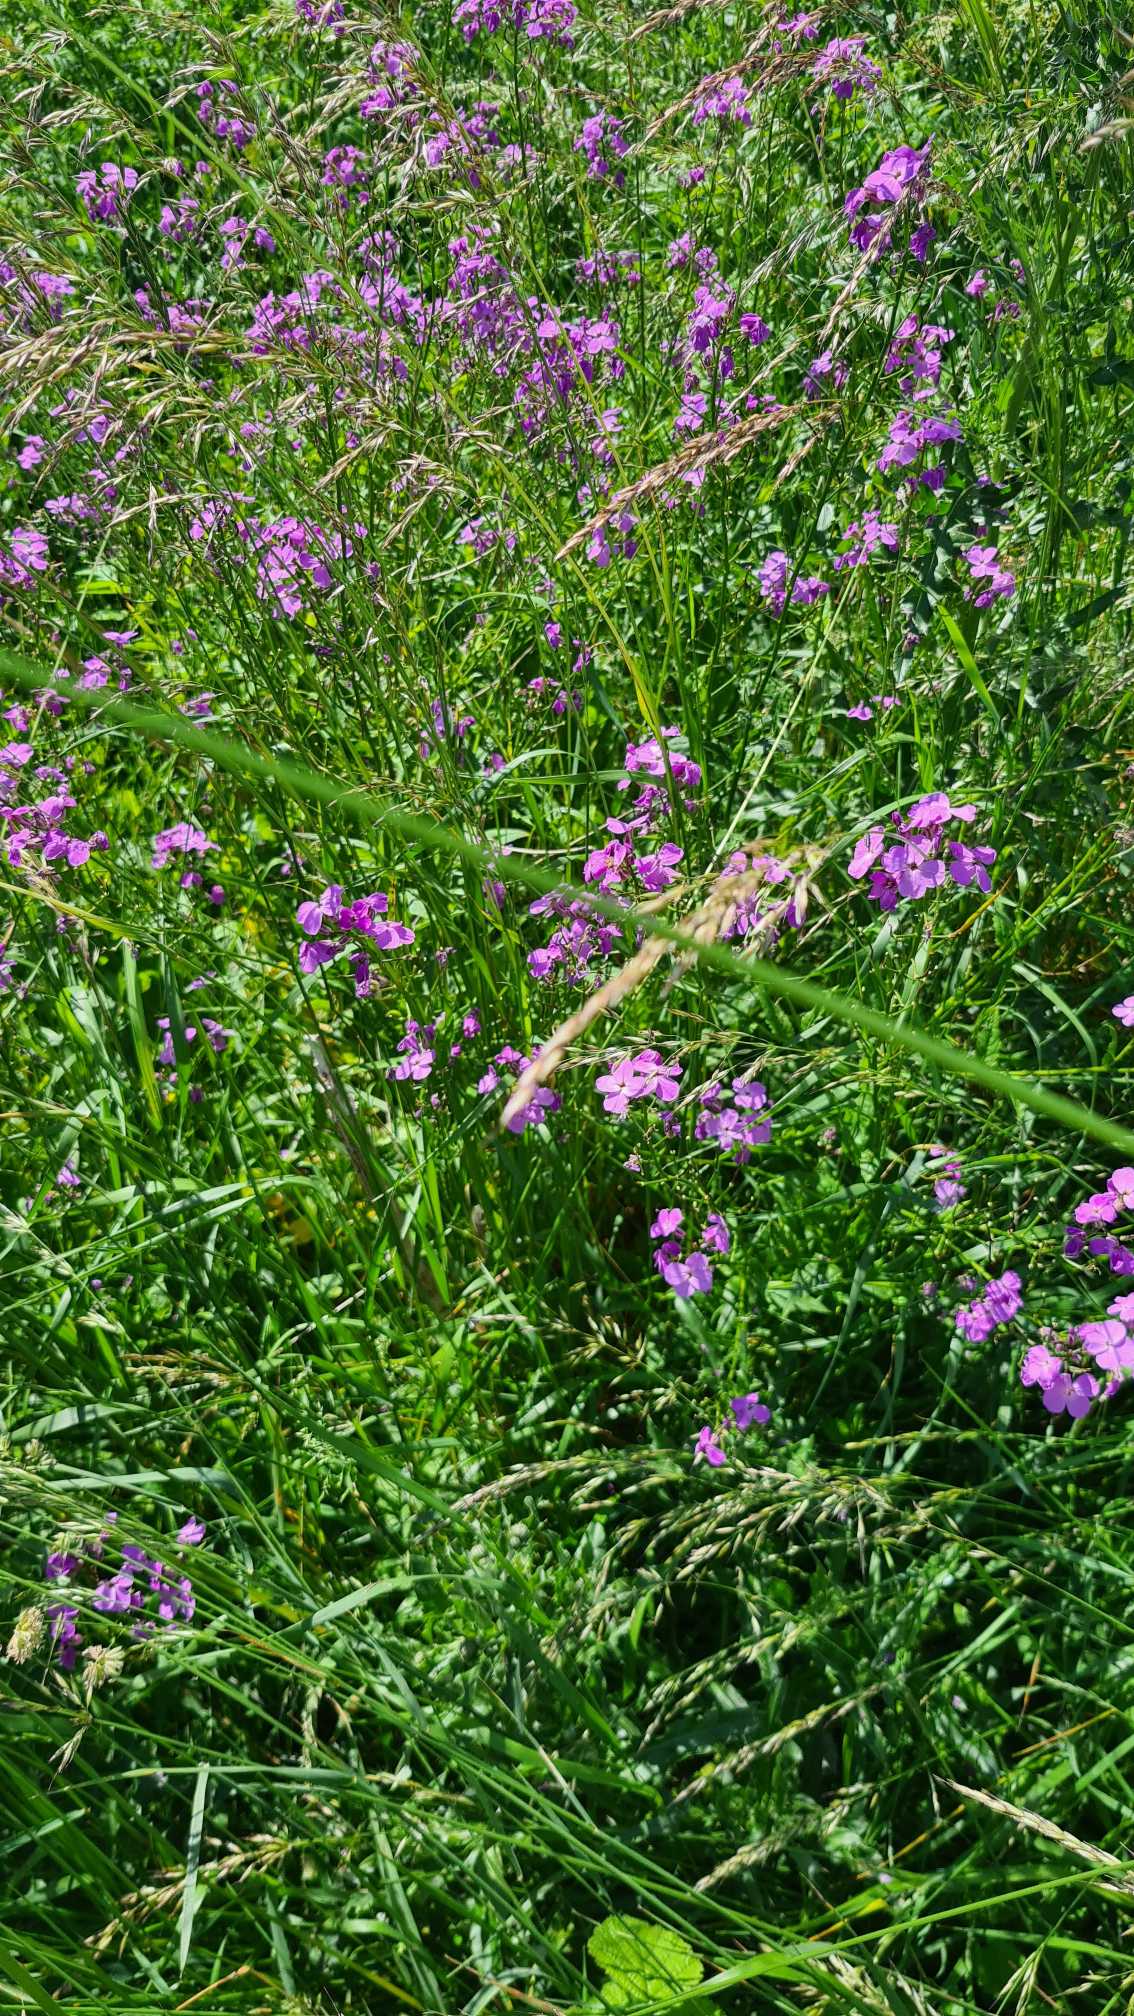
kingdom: Plantae
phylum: Tracheophyta
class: Magnoliopsida
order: Brassicales
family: Brassicaceae
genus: Hesperis
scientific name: Hesperis matronalis
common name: Aftenstjerne
